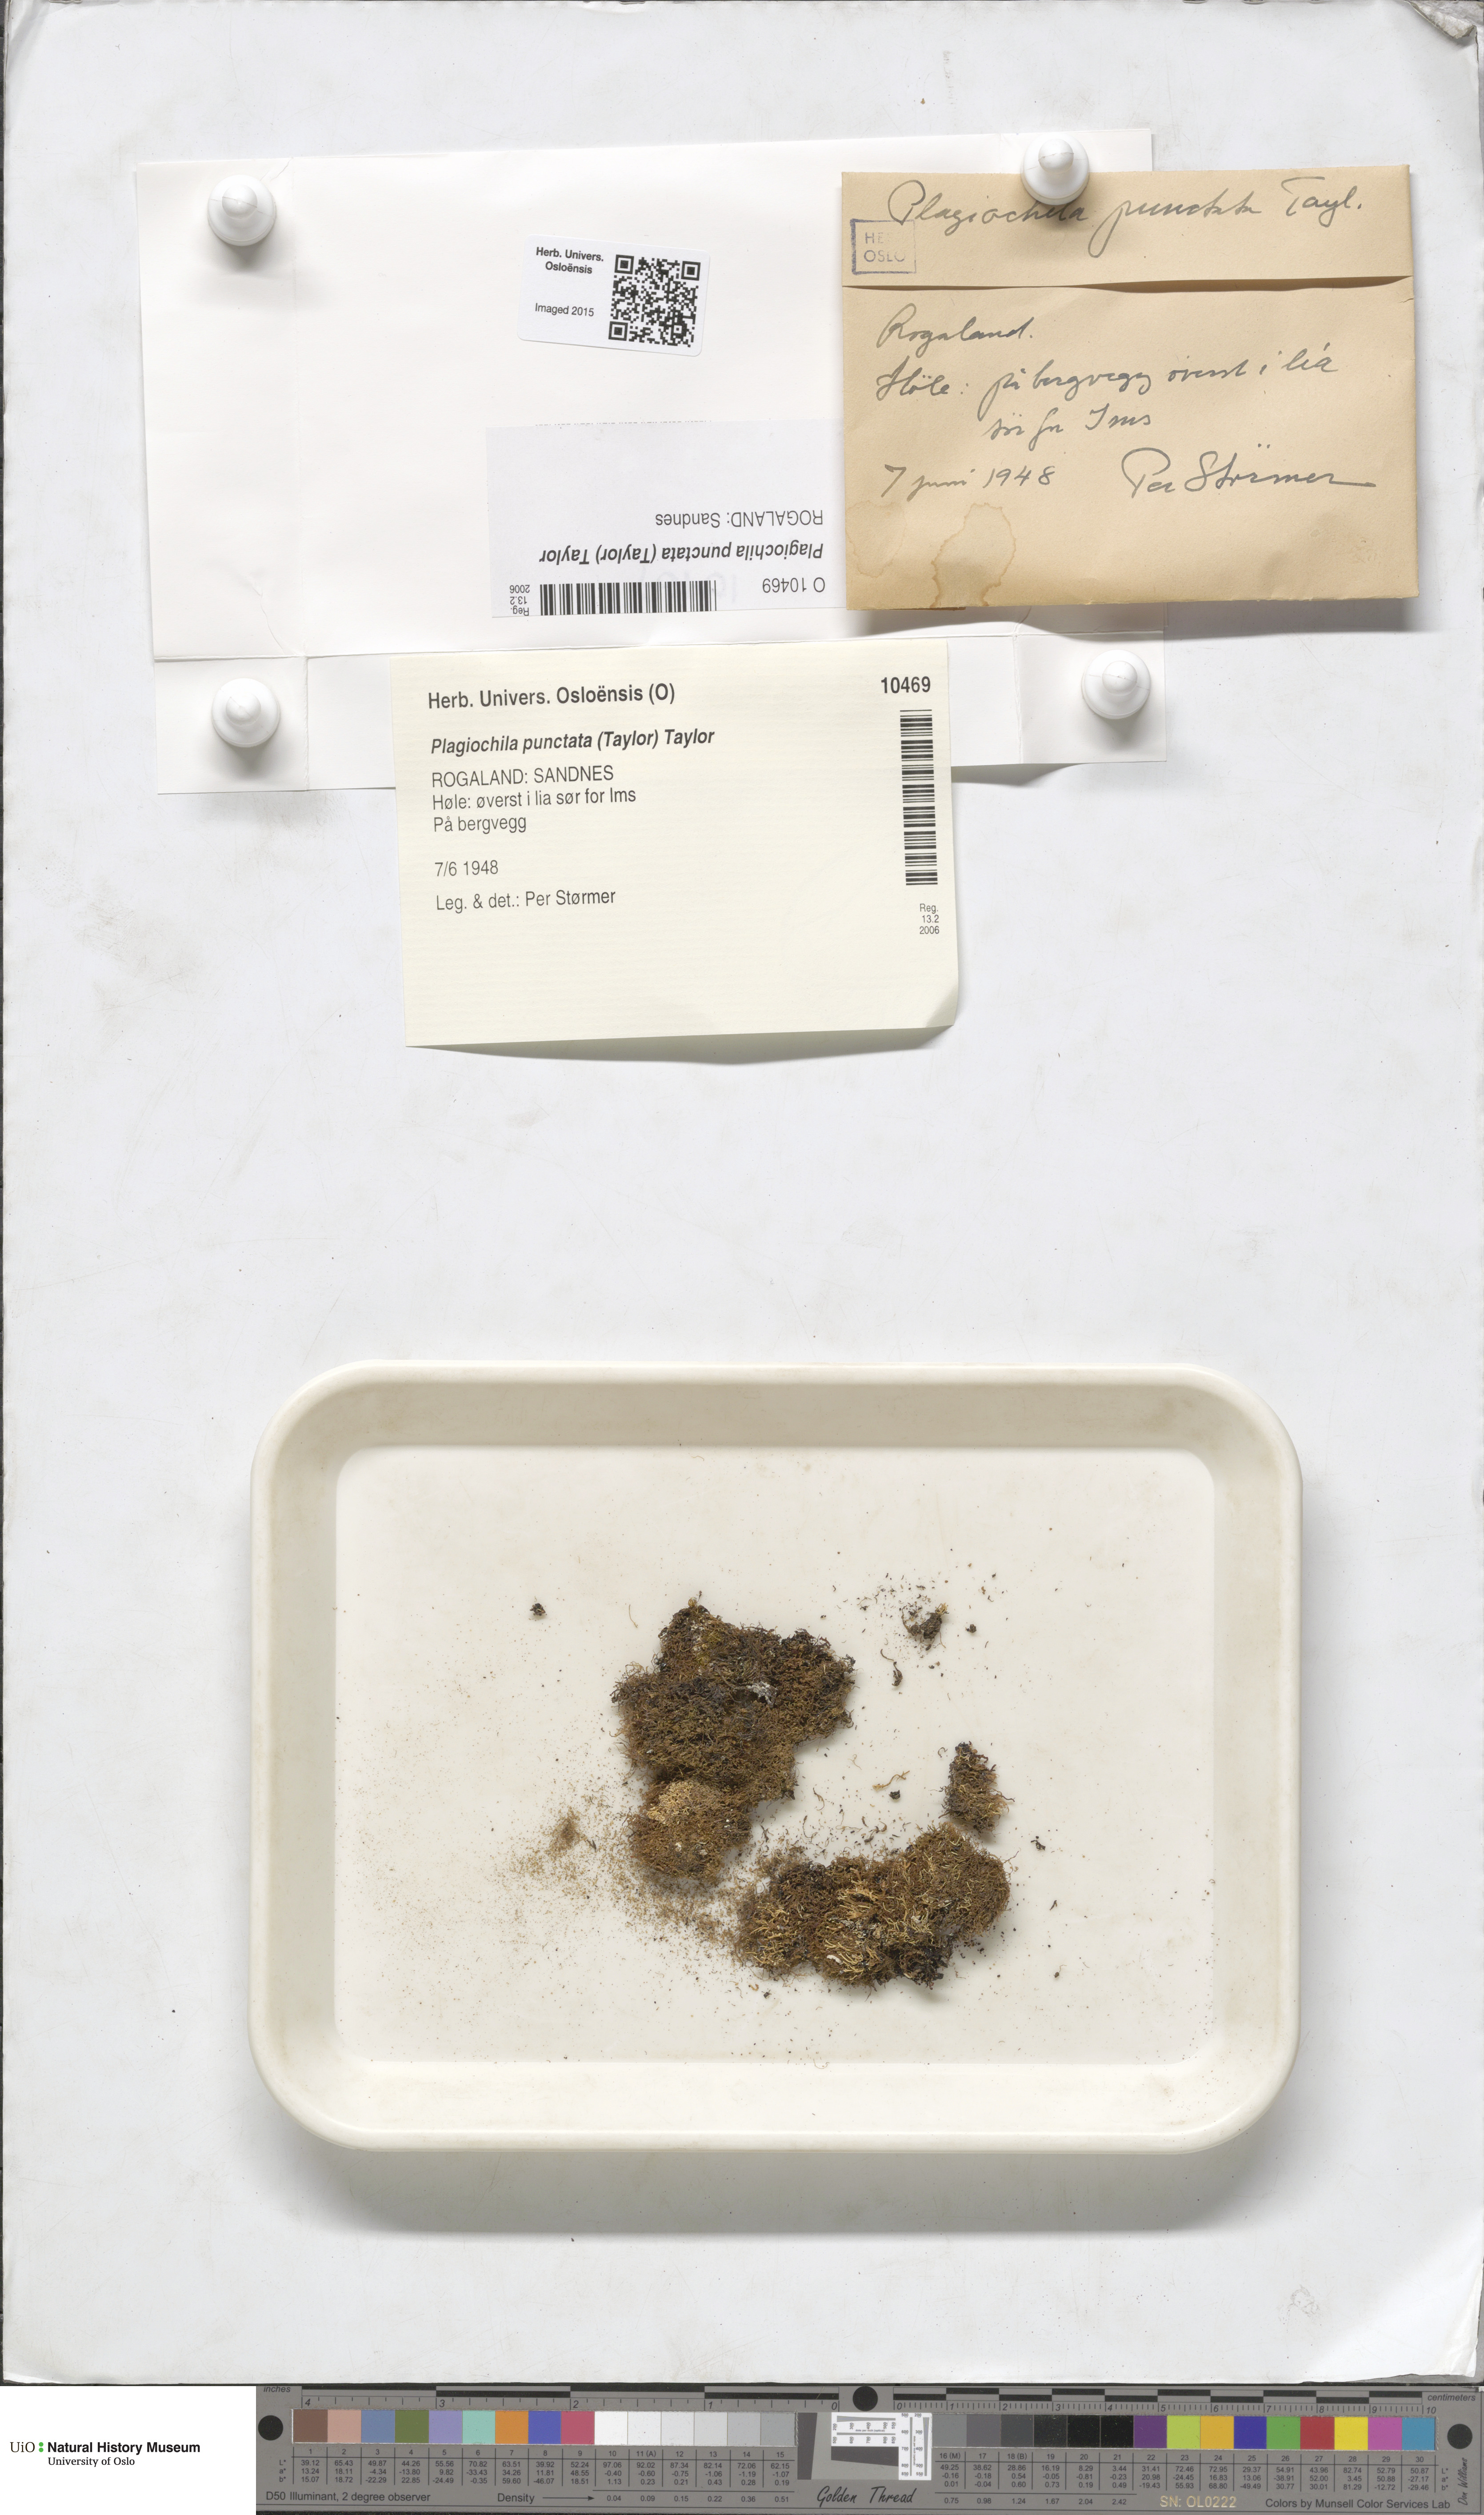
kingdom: Plantae
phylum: Marchantiophyta
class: Jungermanniopsida
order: Jungermanniales
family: Plagiochilaceae
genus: Plagiochila
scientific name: Plagiochila punctata
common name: Spotty featherwort
